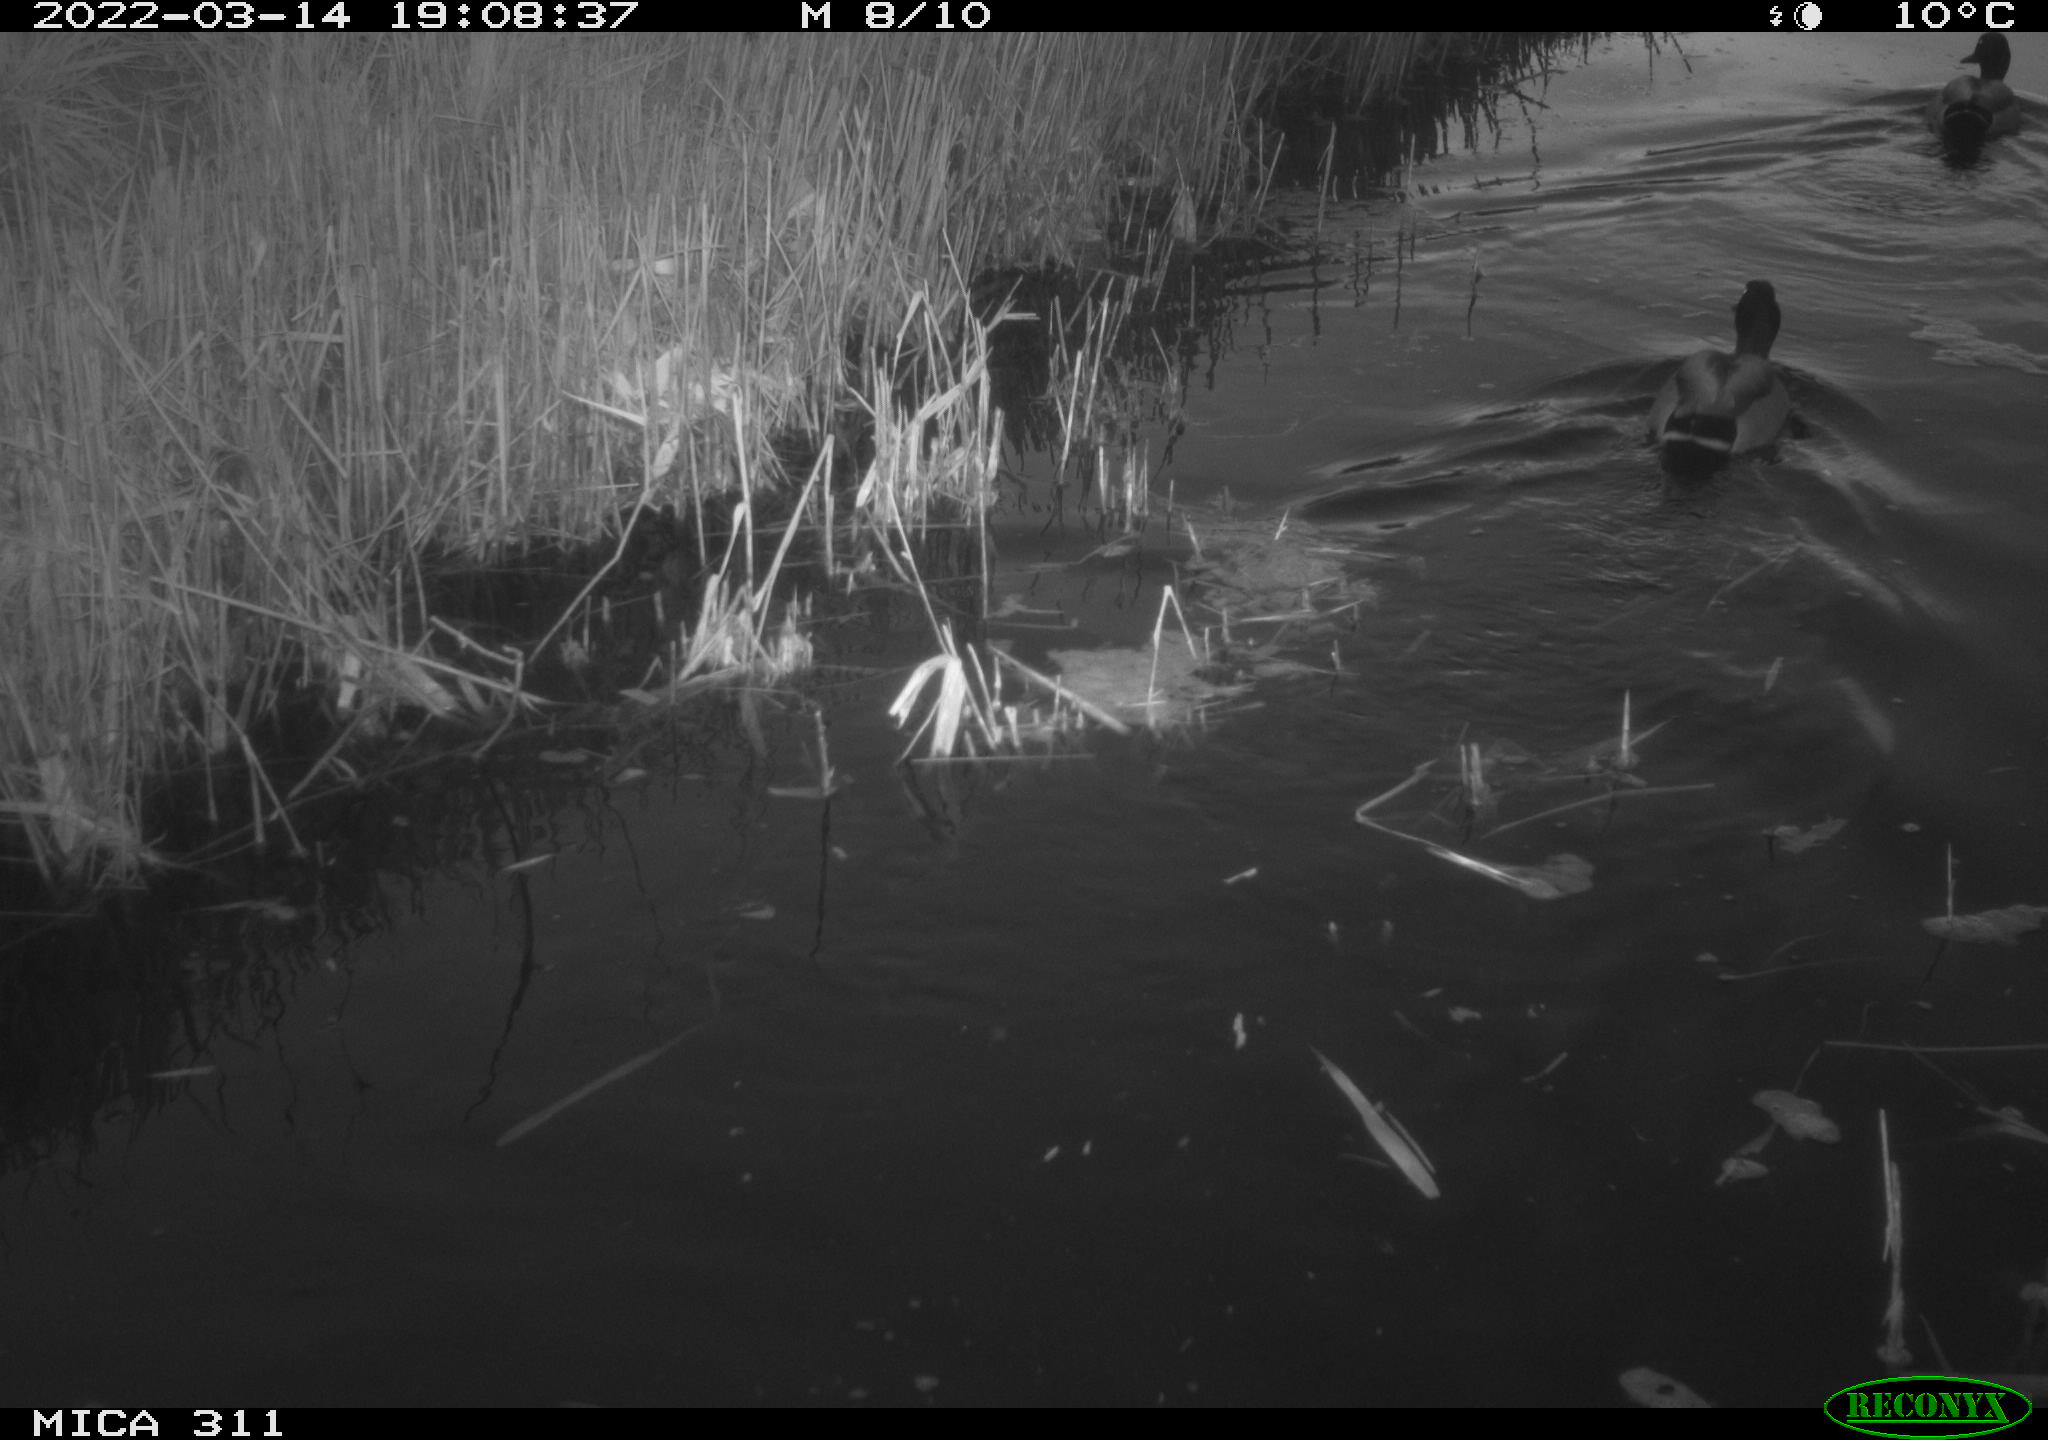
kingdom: Animalia
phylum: Chordata
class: Aves
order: Anseriformes
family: Anatidae
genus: Anas
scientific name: Anas
